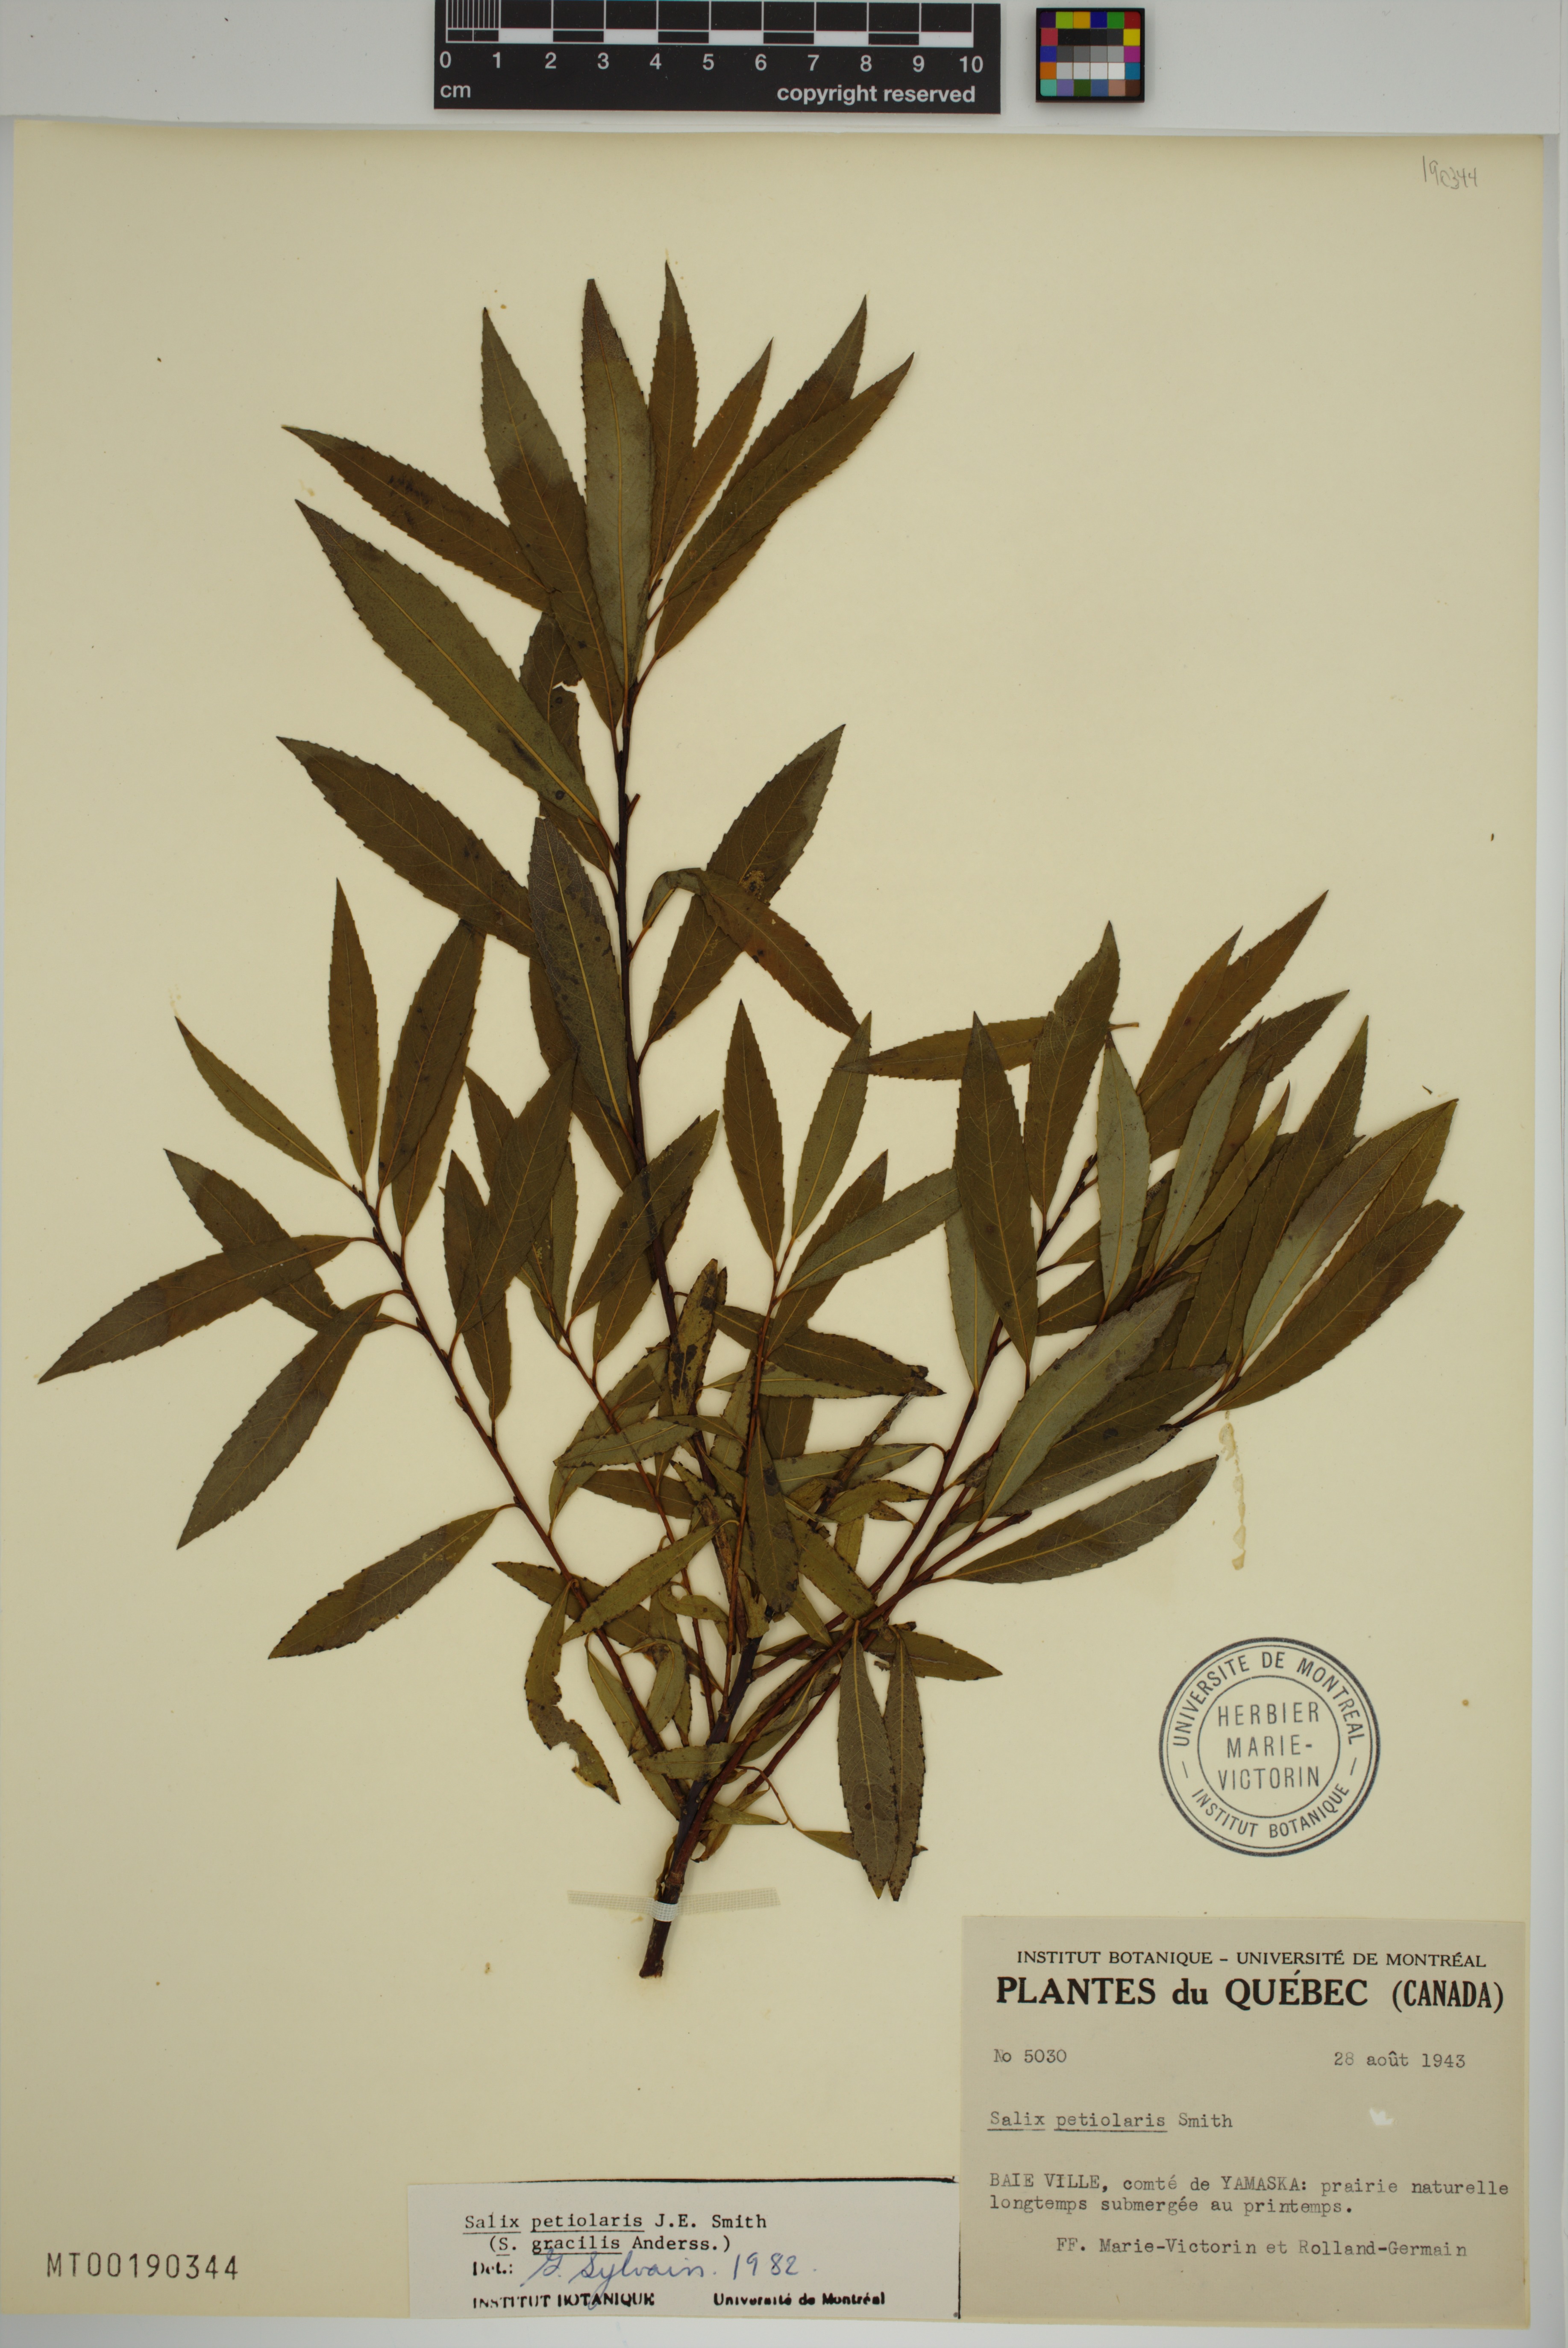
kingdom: Plantae
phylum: Tracheophyta
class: Magnoliopsida
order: Malpighiales
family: Salicaceae
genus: Salix
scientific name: Salix petiolaris
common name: Slender willow
